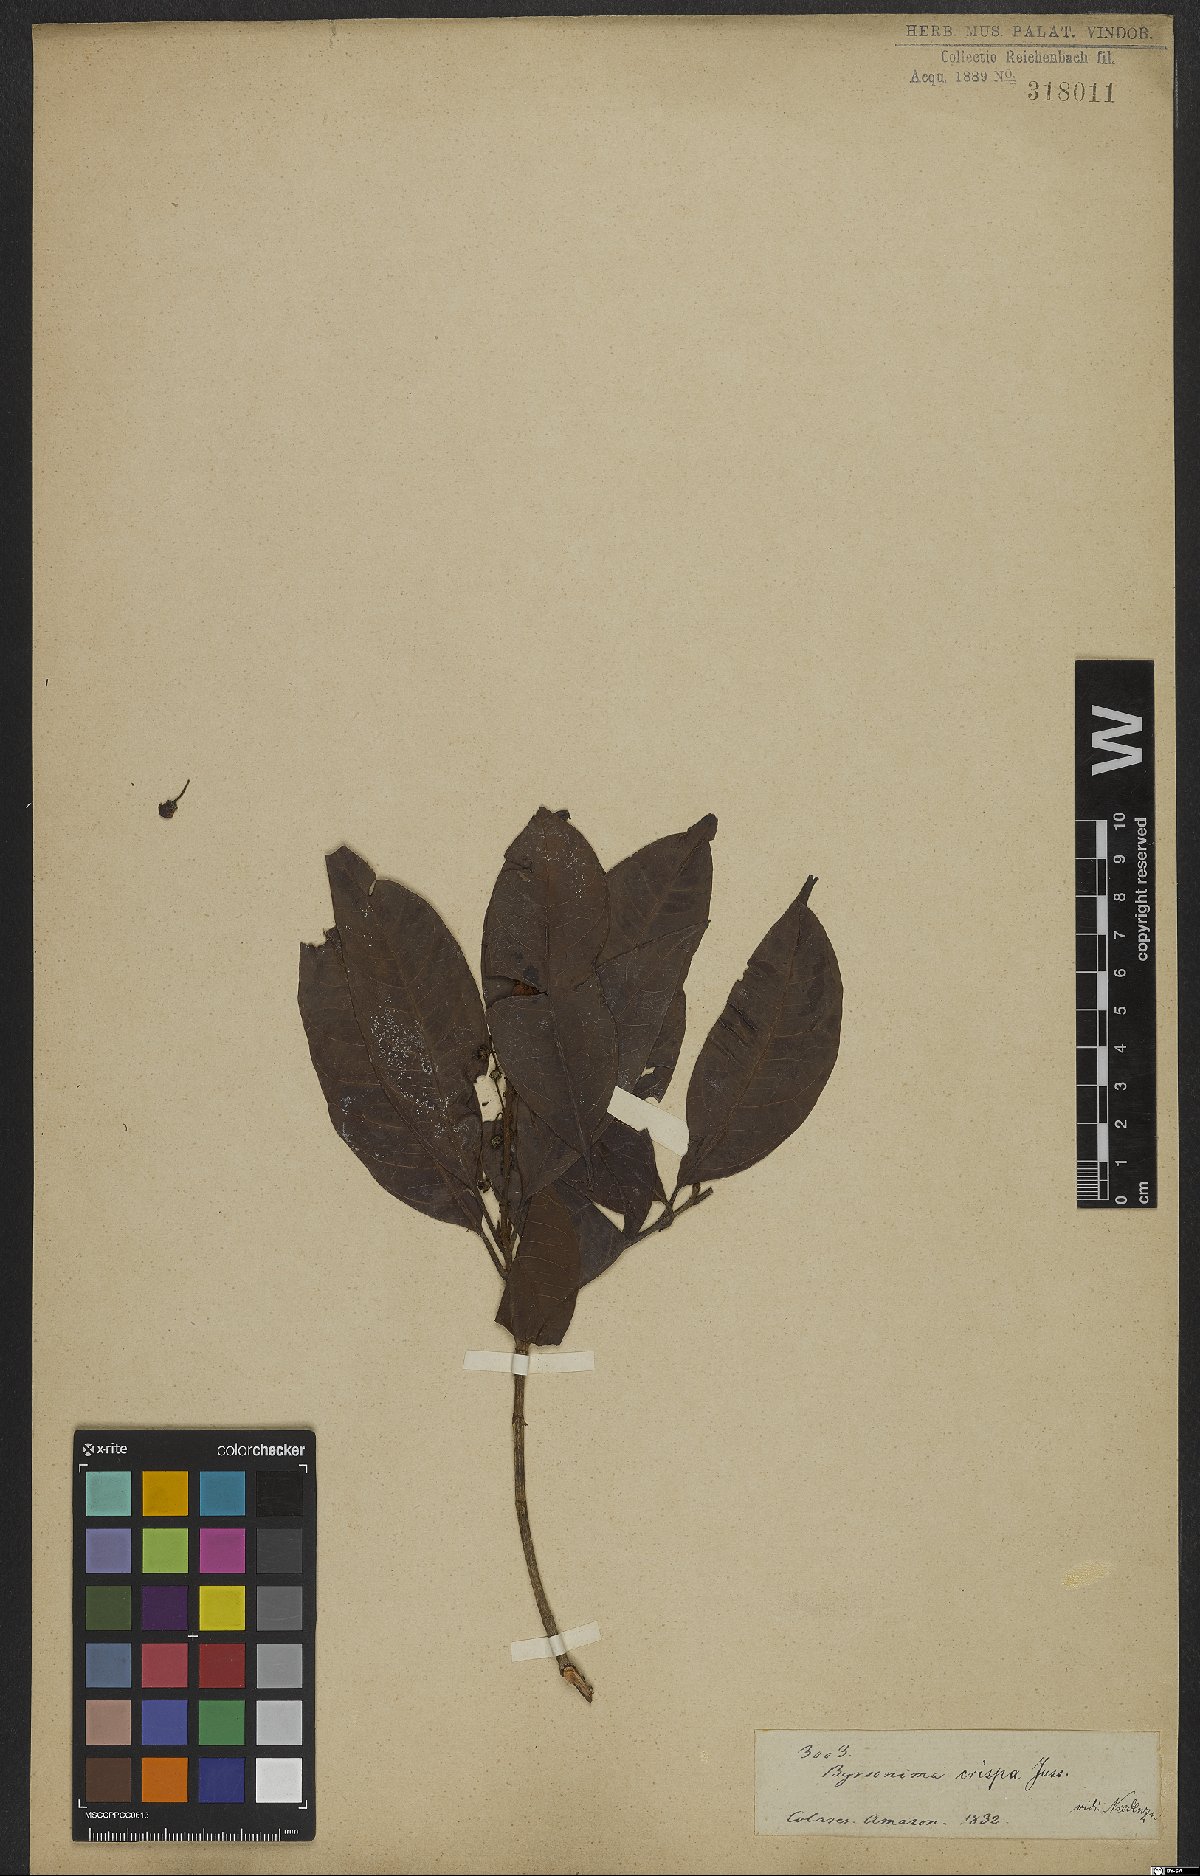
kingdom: Plantae
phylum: Tracheophyta
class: Magnoliopsida
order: Malpighiales
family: Malpighiaceae
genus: Byrsonima
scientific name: Byrsonima crispa
